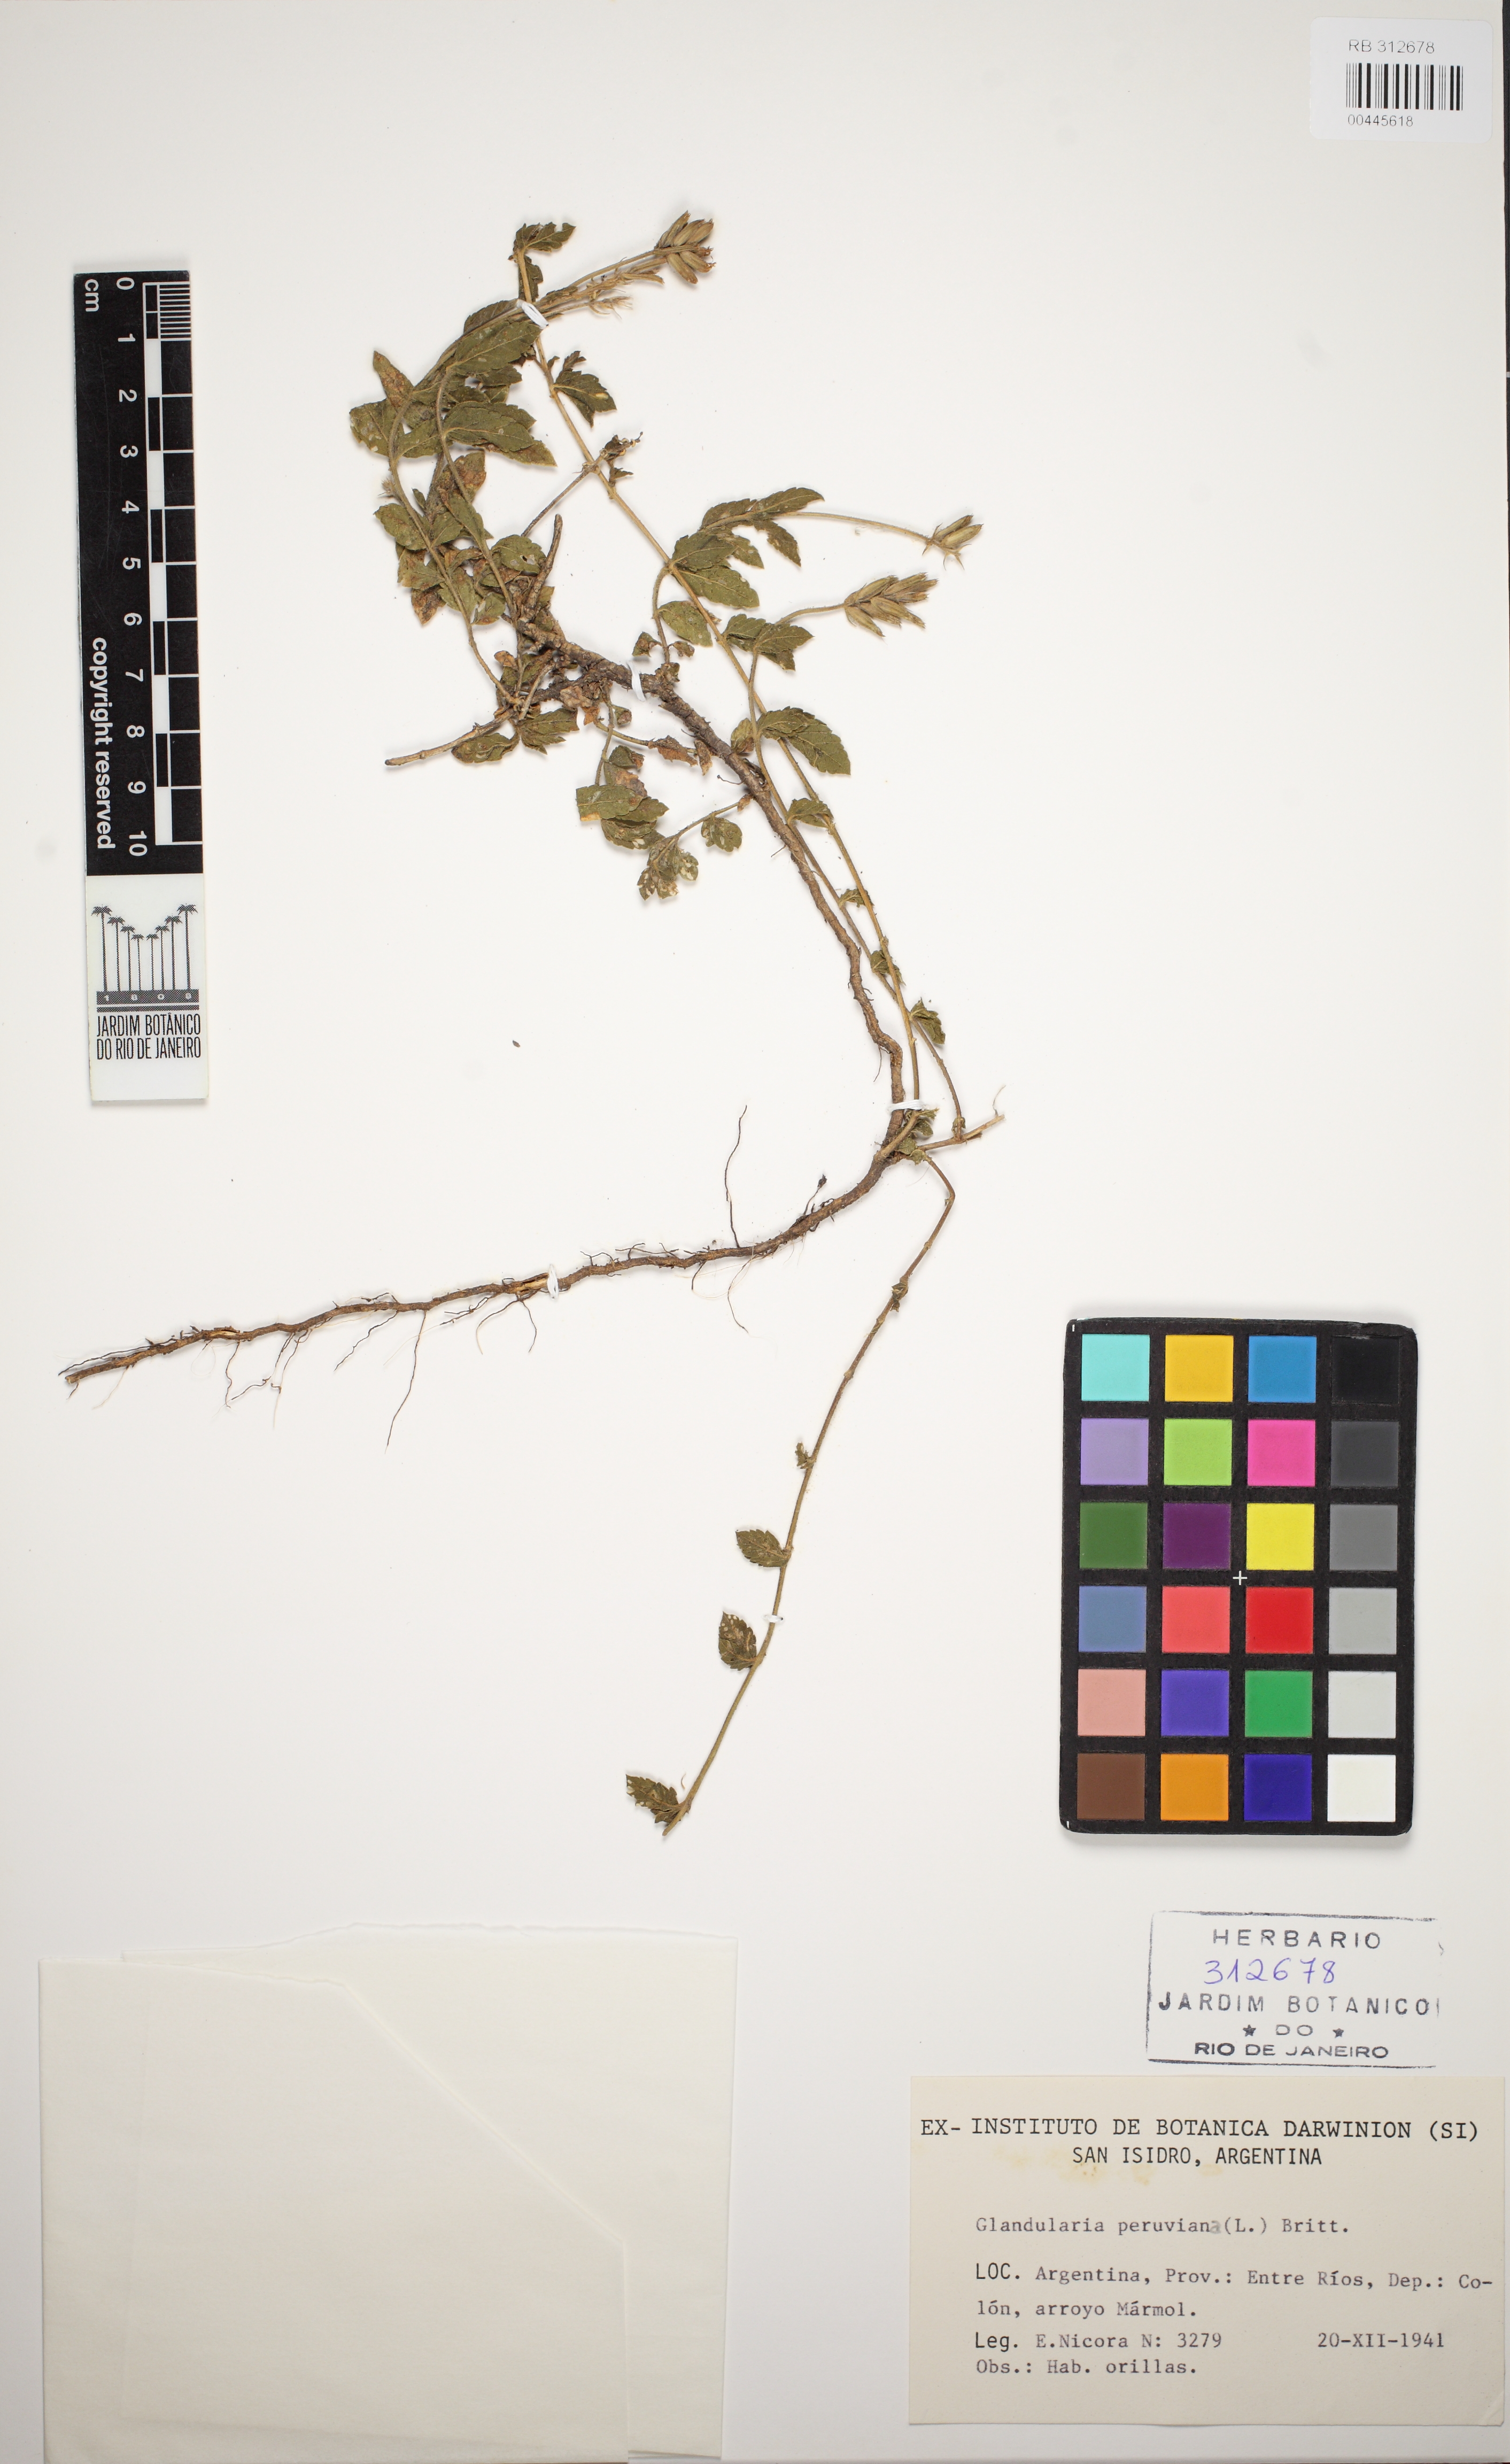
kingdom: Plantae
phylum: Tracheophyta
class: Magnoliopsida
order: Lamiales
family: Verbenaceae
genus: Verbena
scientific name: Verbena peruviana
